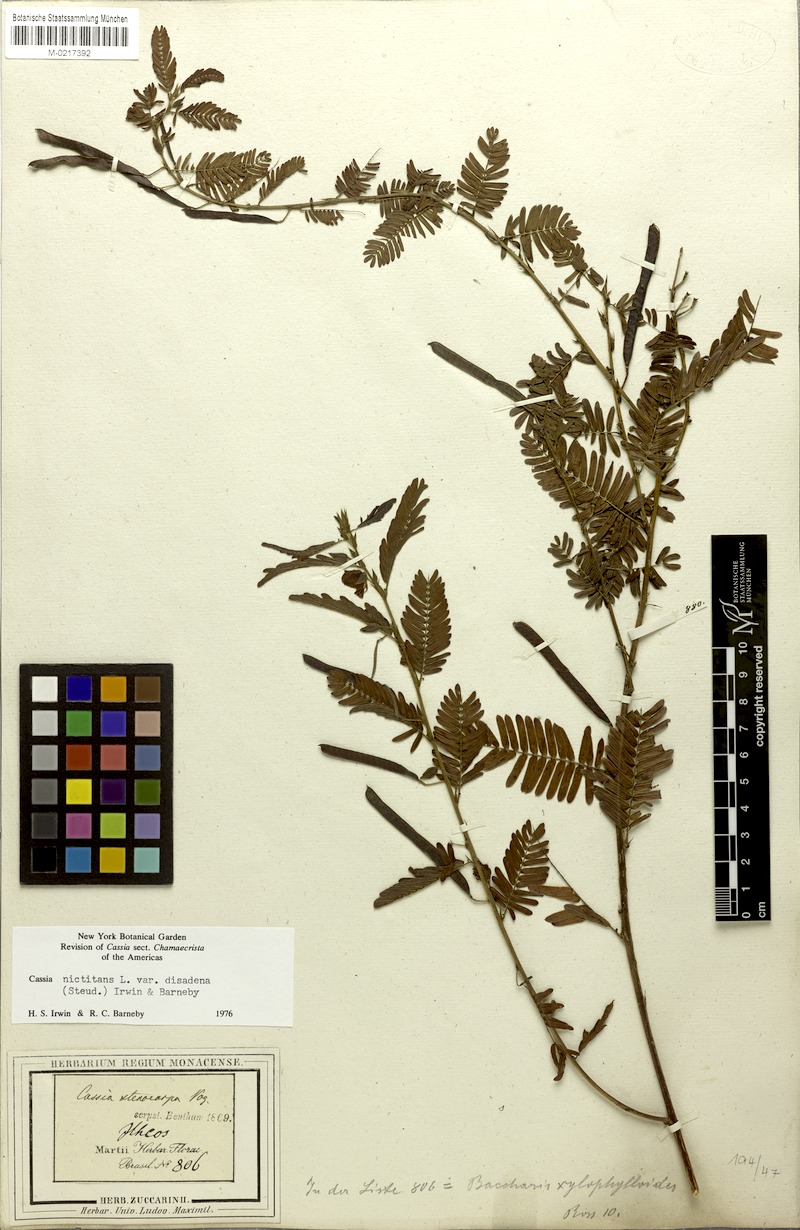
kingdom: Plantae
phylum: Tracheophyta
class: Magnoliopsida
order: Fabales
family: Fabaceae
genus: Chamaecrista
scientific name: Chamaecrista nictitans
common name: Sensitive cassia
